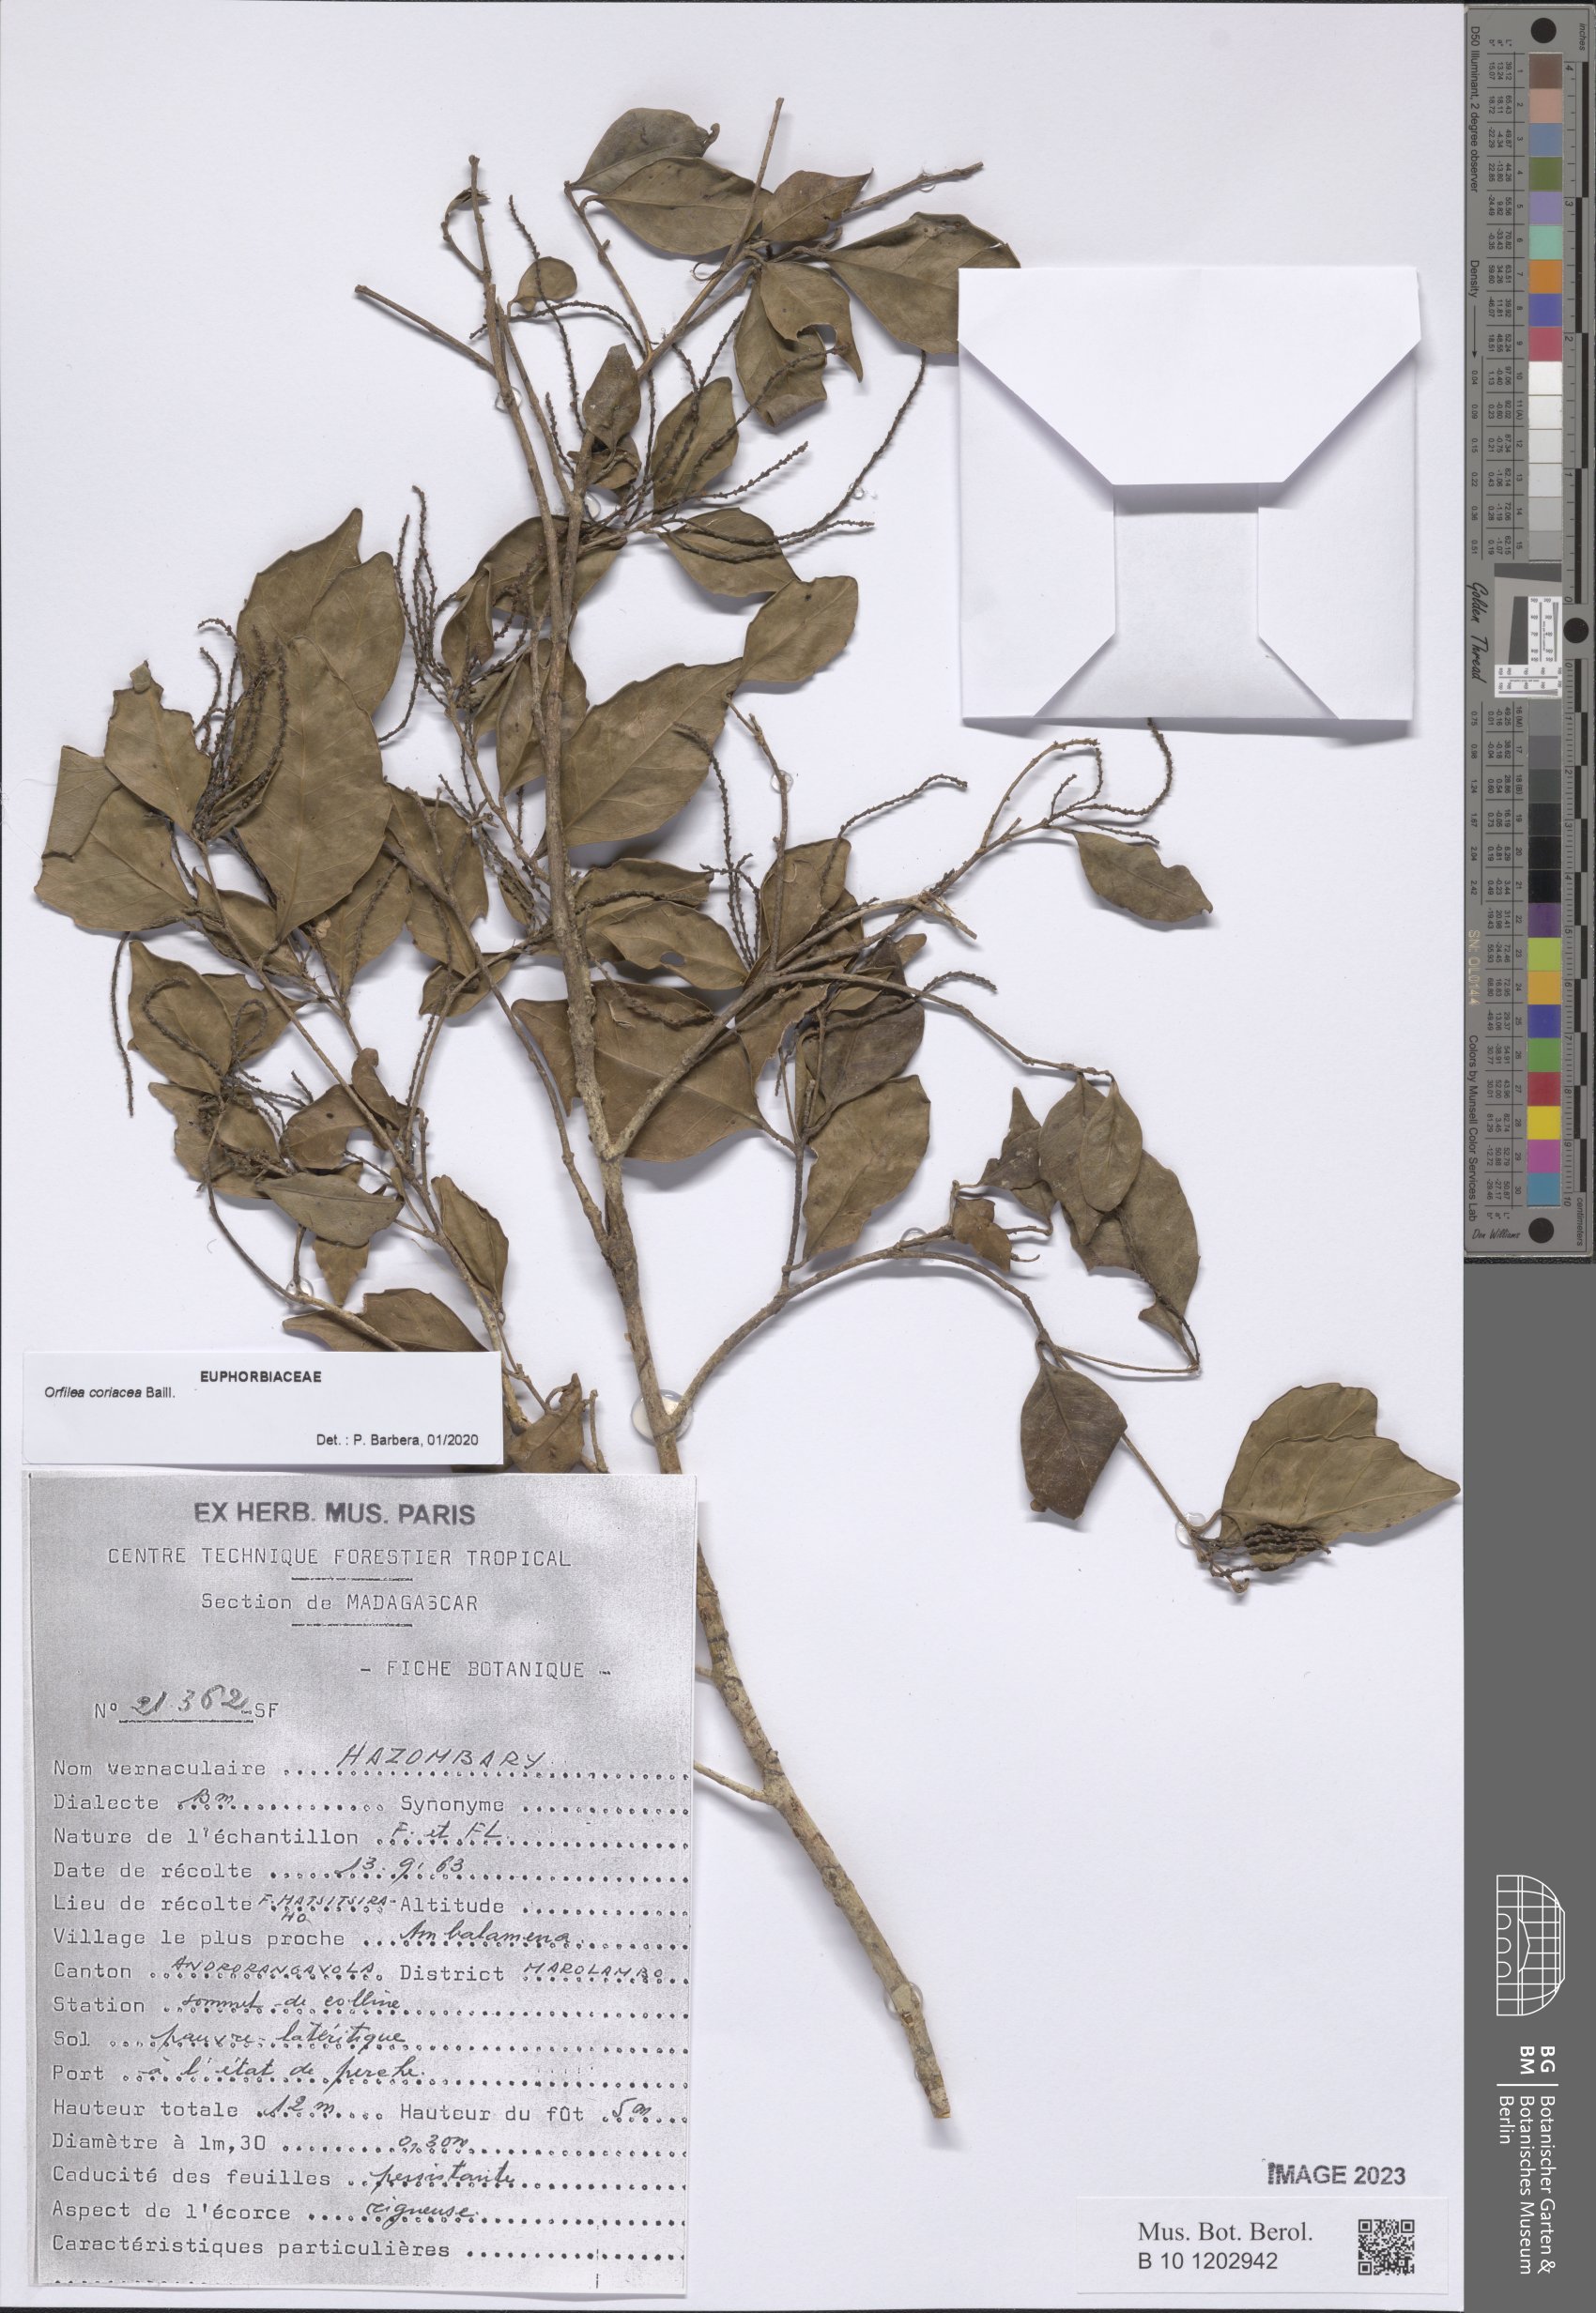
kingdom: Plantae
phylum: Tracheophyta
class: Magnoliopsida
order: Malpighiales
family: Euphorbiaceae
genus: Orfilea
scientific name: Orfilea coriacea
